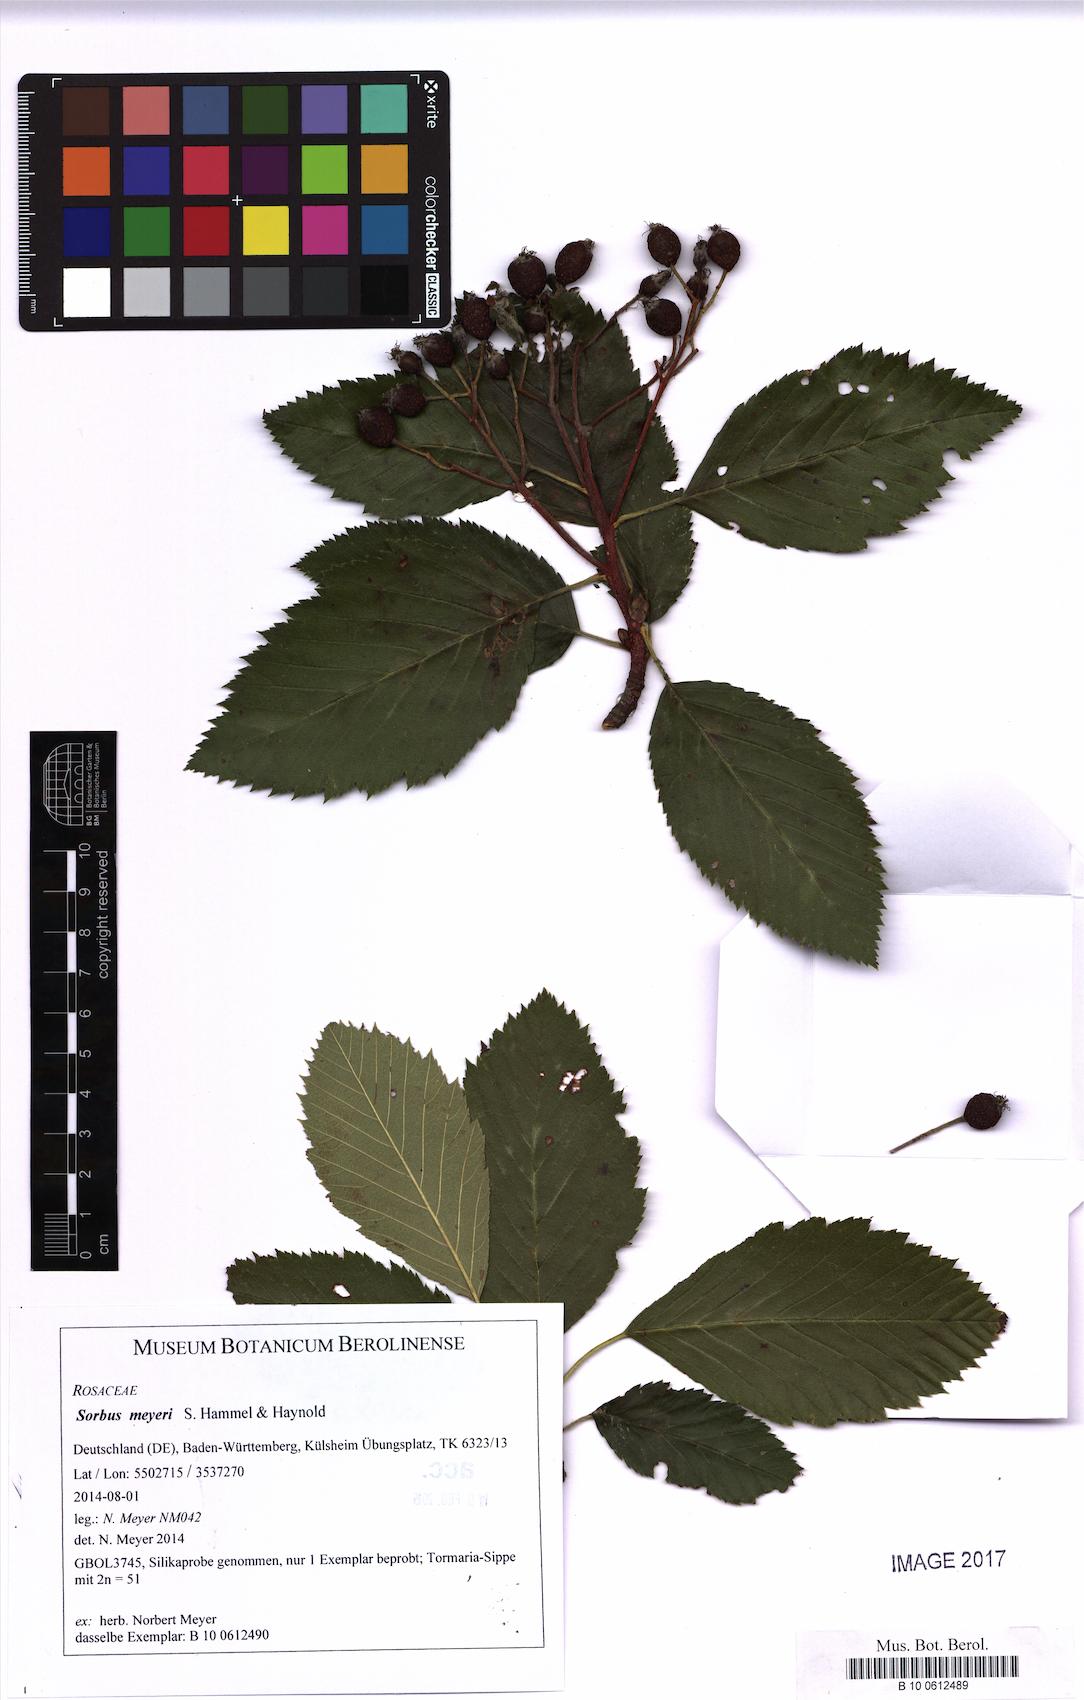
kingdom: Plantae
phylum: Tracheophyta
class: Magnoliopsida
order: Rosales
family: Rosaceae
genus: Karpatiosorbus
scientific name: Karpatiosorbus meyeri
